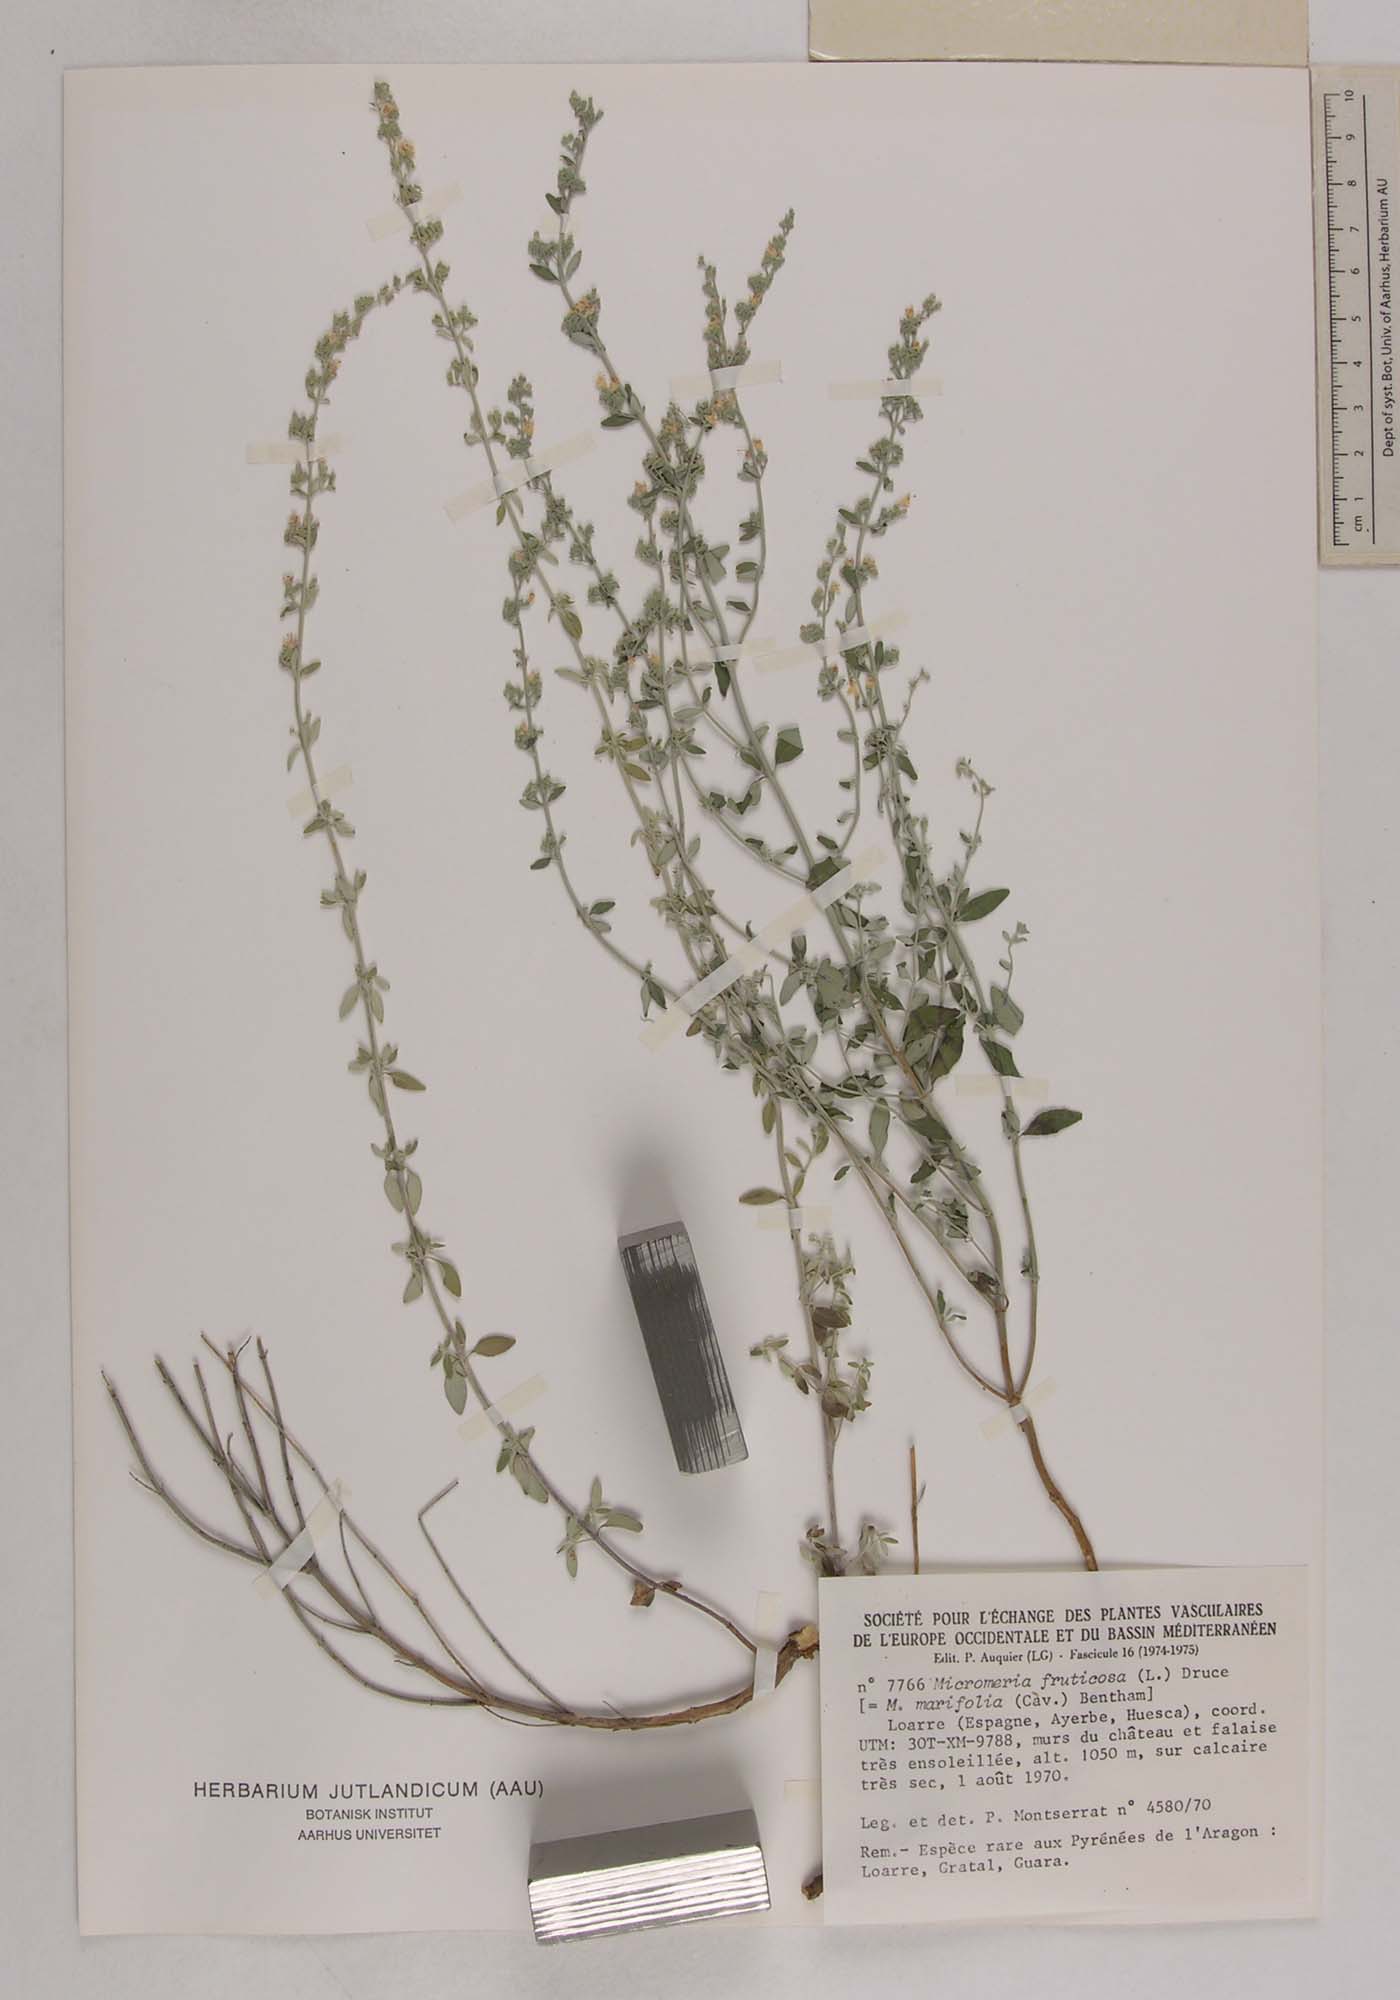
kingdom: Plantae
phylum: Tracheophyta
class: Magnoliopsida
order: Lamiales
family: Lamiaceae
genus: Clinopodium
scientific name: Clinopodium serpyllifolium
